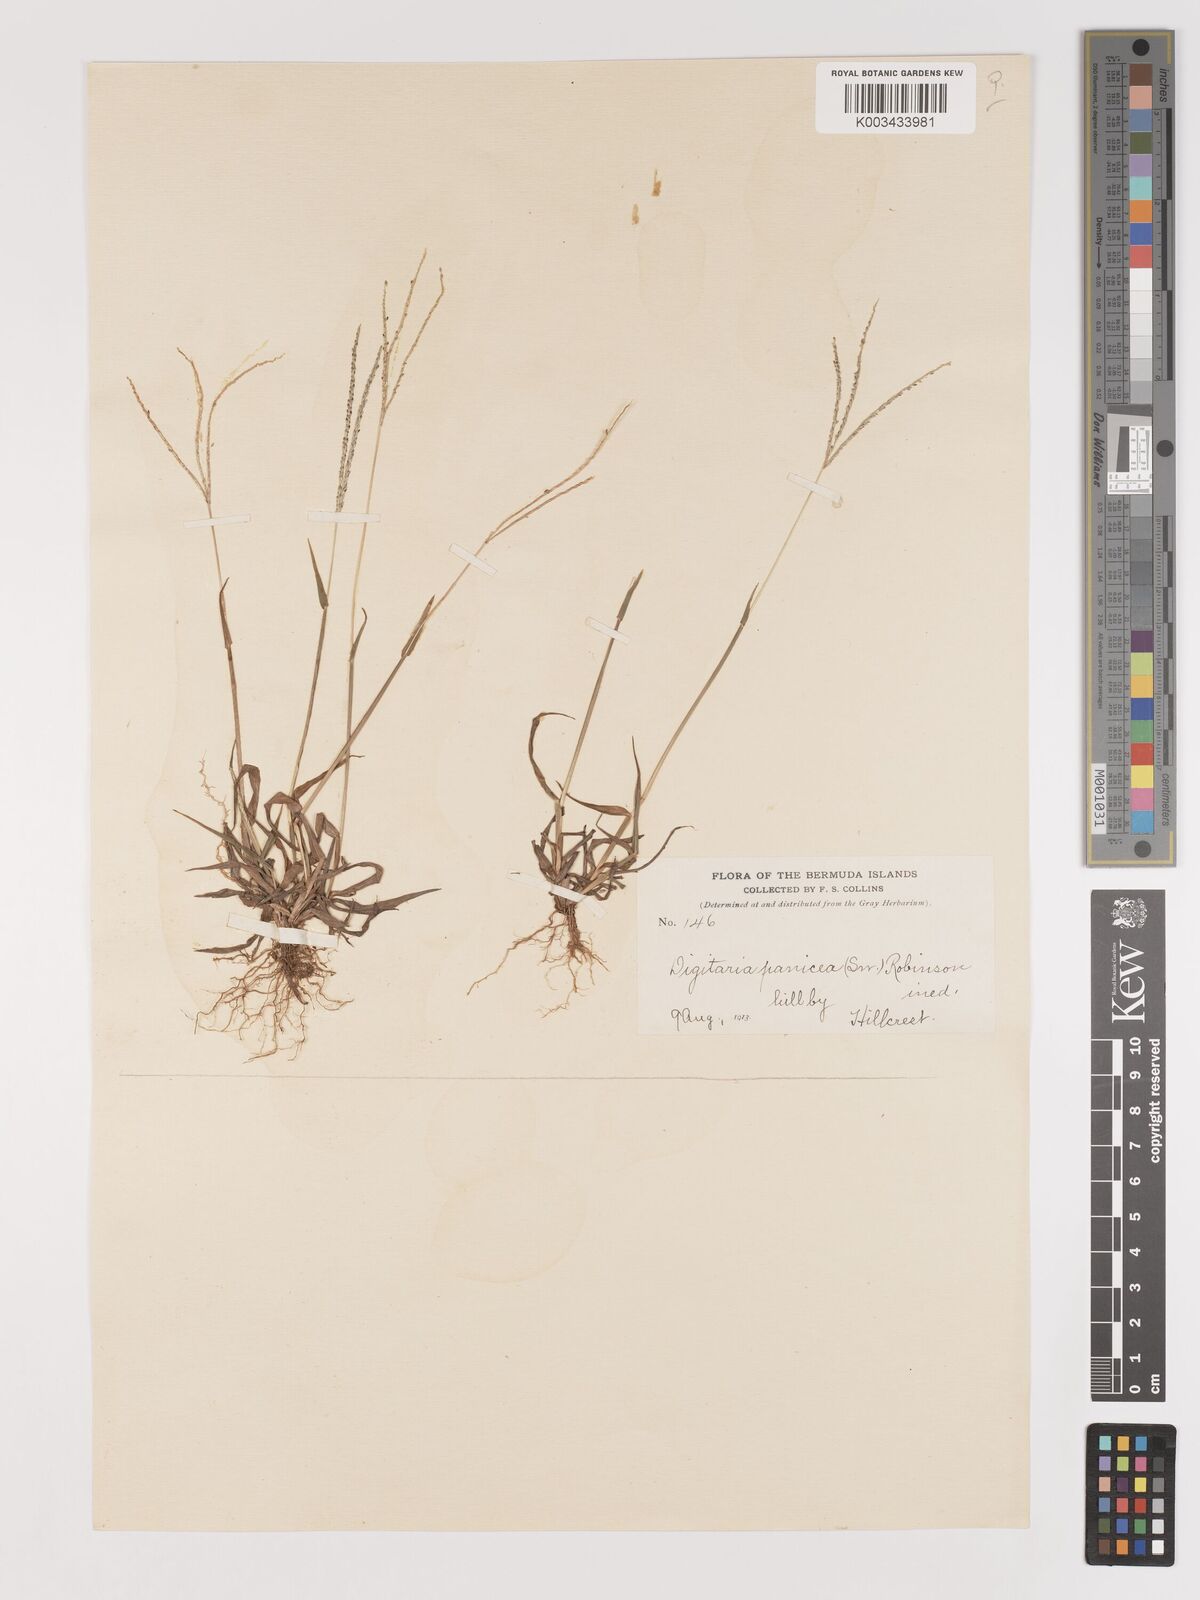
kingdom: Plantae
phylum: Tracheophyta
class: Liliopsida
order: Poales
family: Poaceae
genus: Digitaria
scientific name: Digitaria violascens
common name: Violet crabgrass
